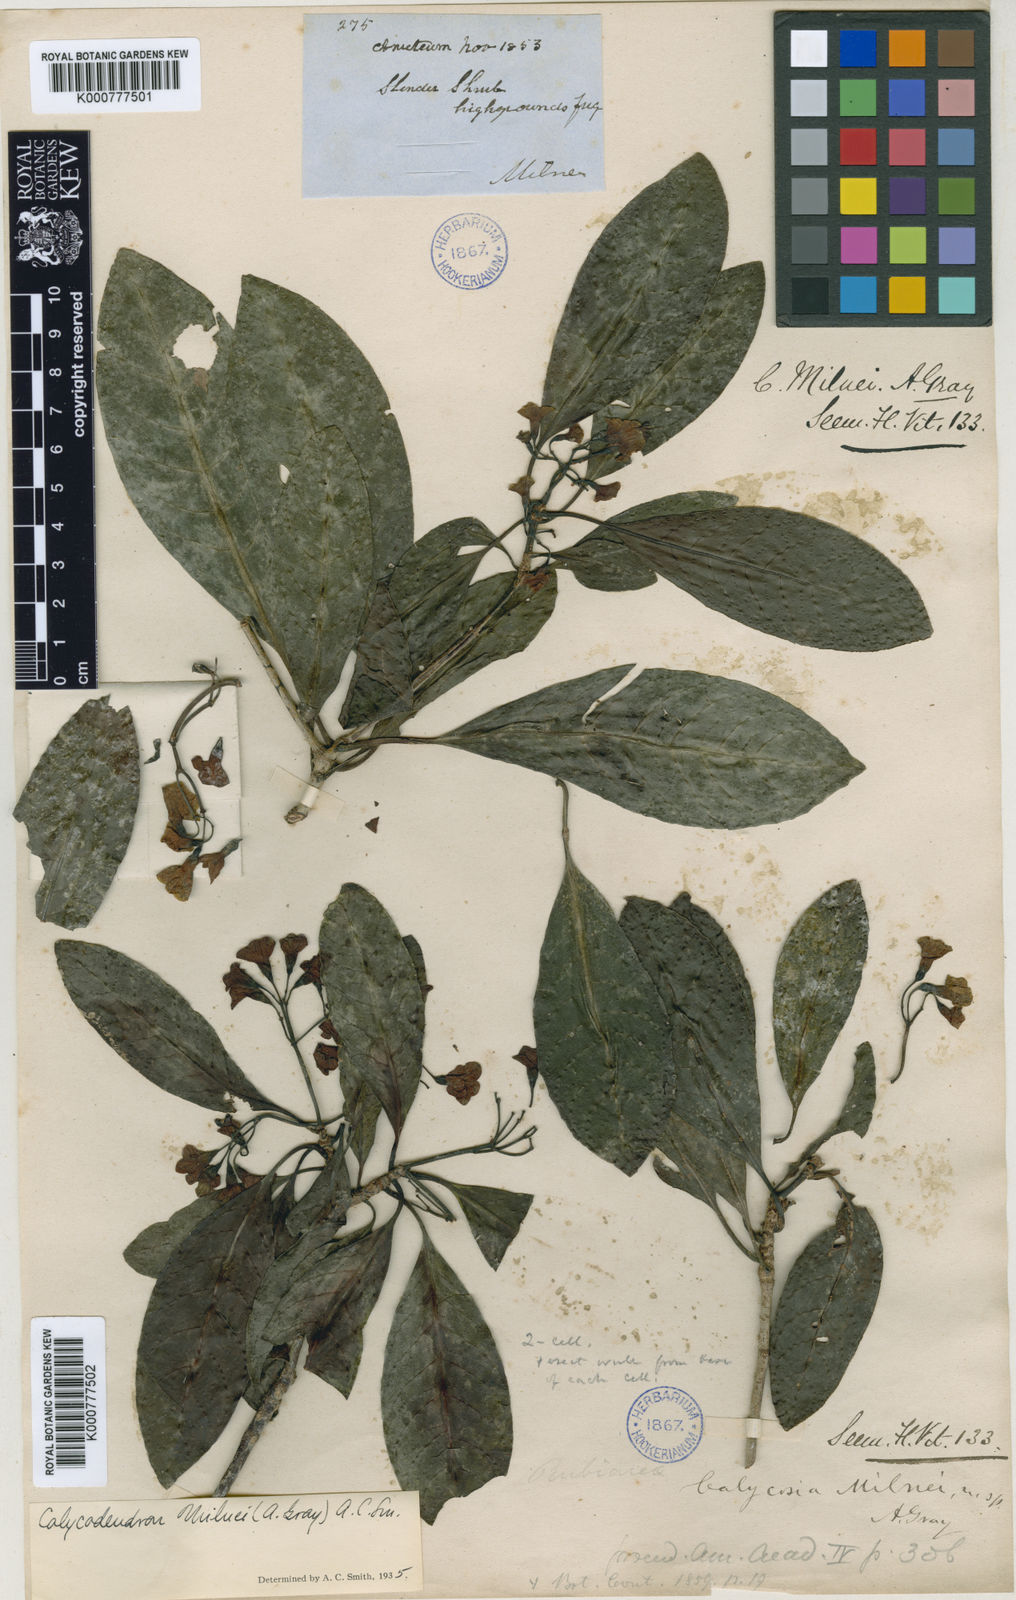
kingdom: Plantae
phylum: Tracheophyta
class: Magnoliopsida
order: Gentianales
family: Rubiaceae
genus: Psychotria
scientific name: Psychotria milnei
